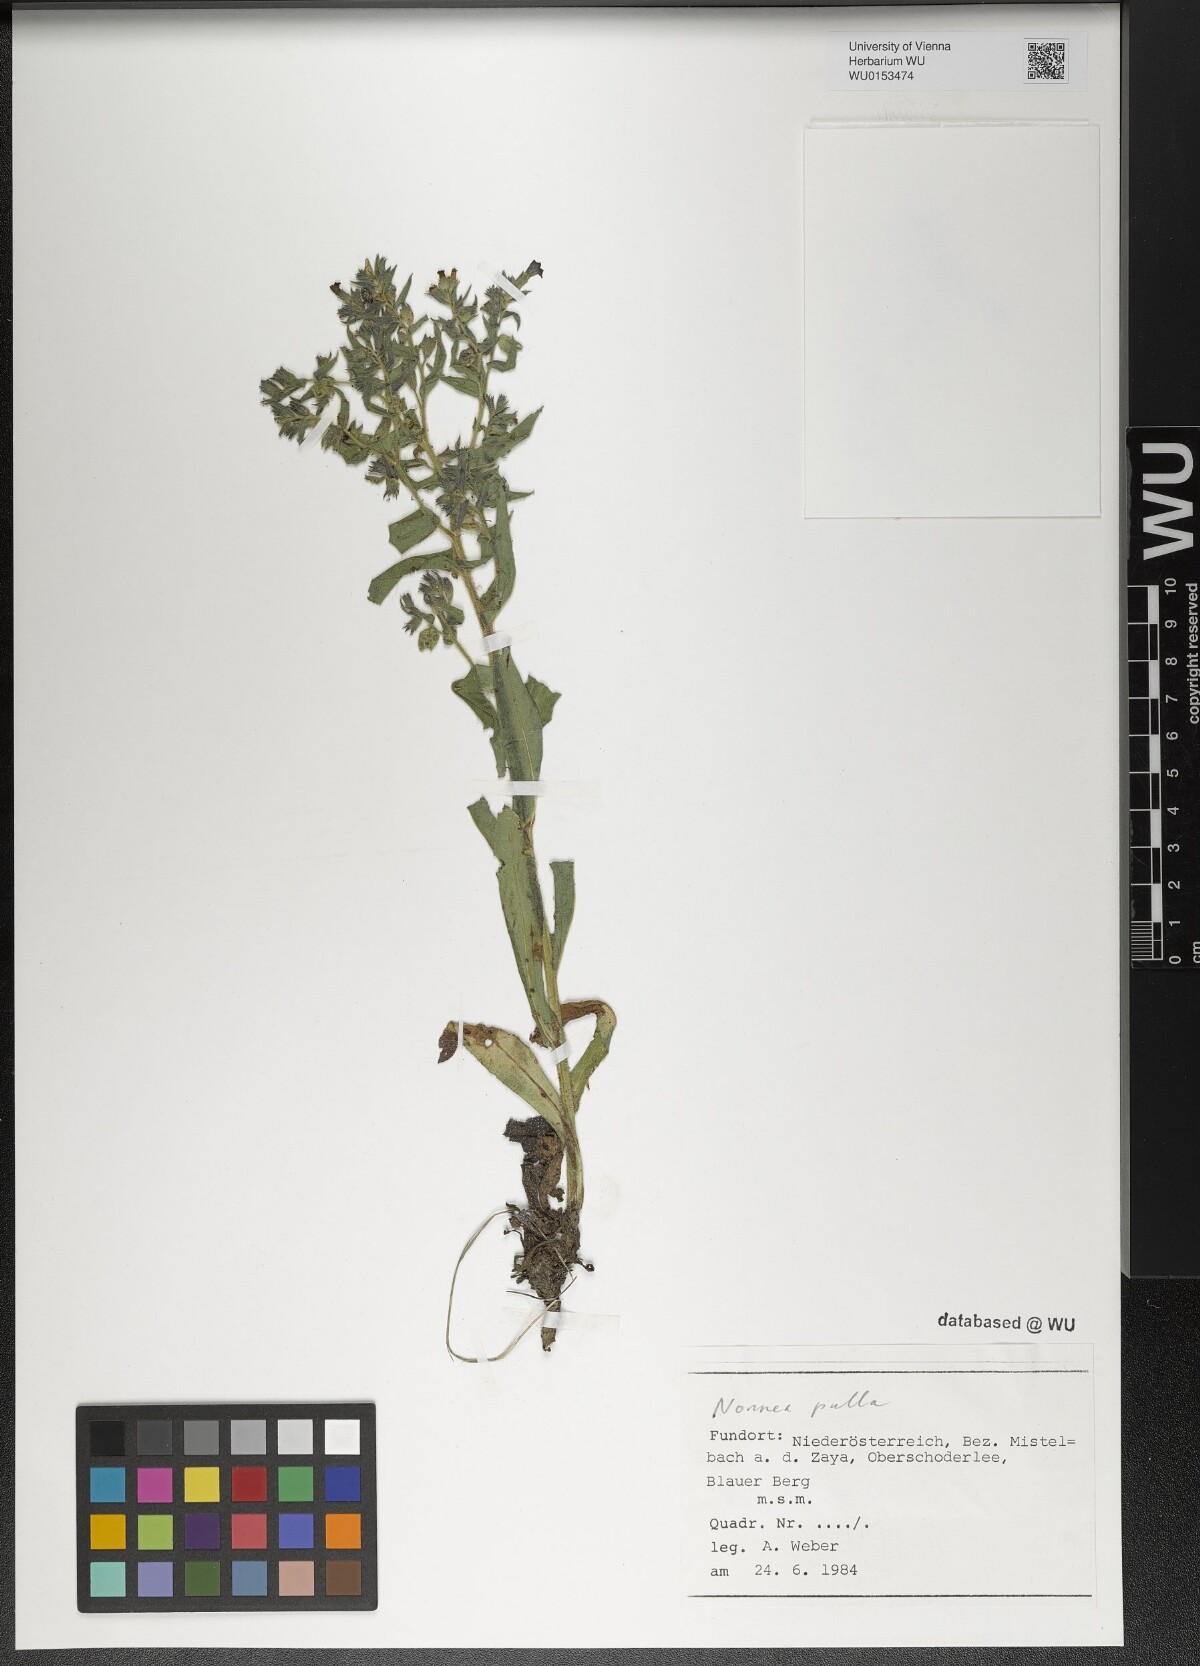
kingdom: Plantae
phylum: Tracheophyta
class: Magnoliopsida
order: Boraginales
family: Boraginaceae
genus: Nonea
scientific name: Nonea pulla
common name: Brown nonea
